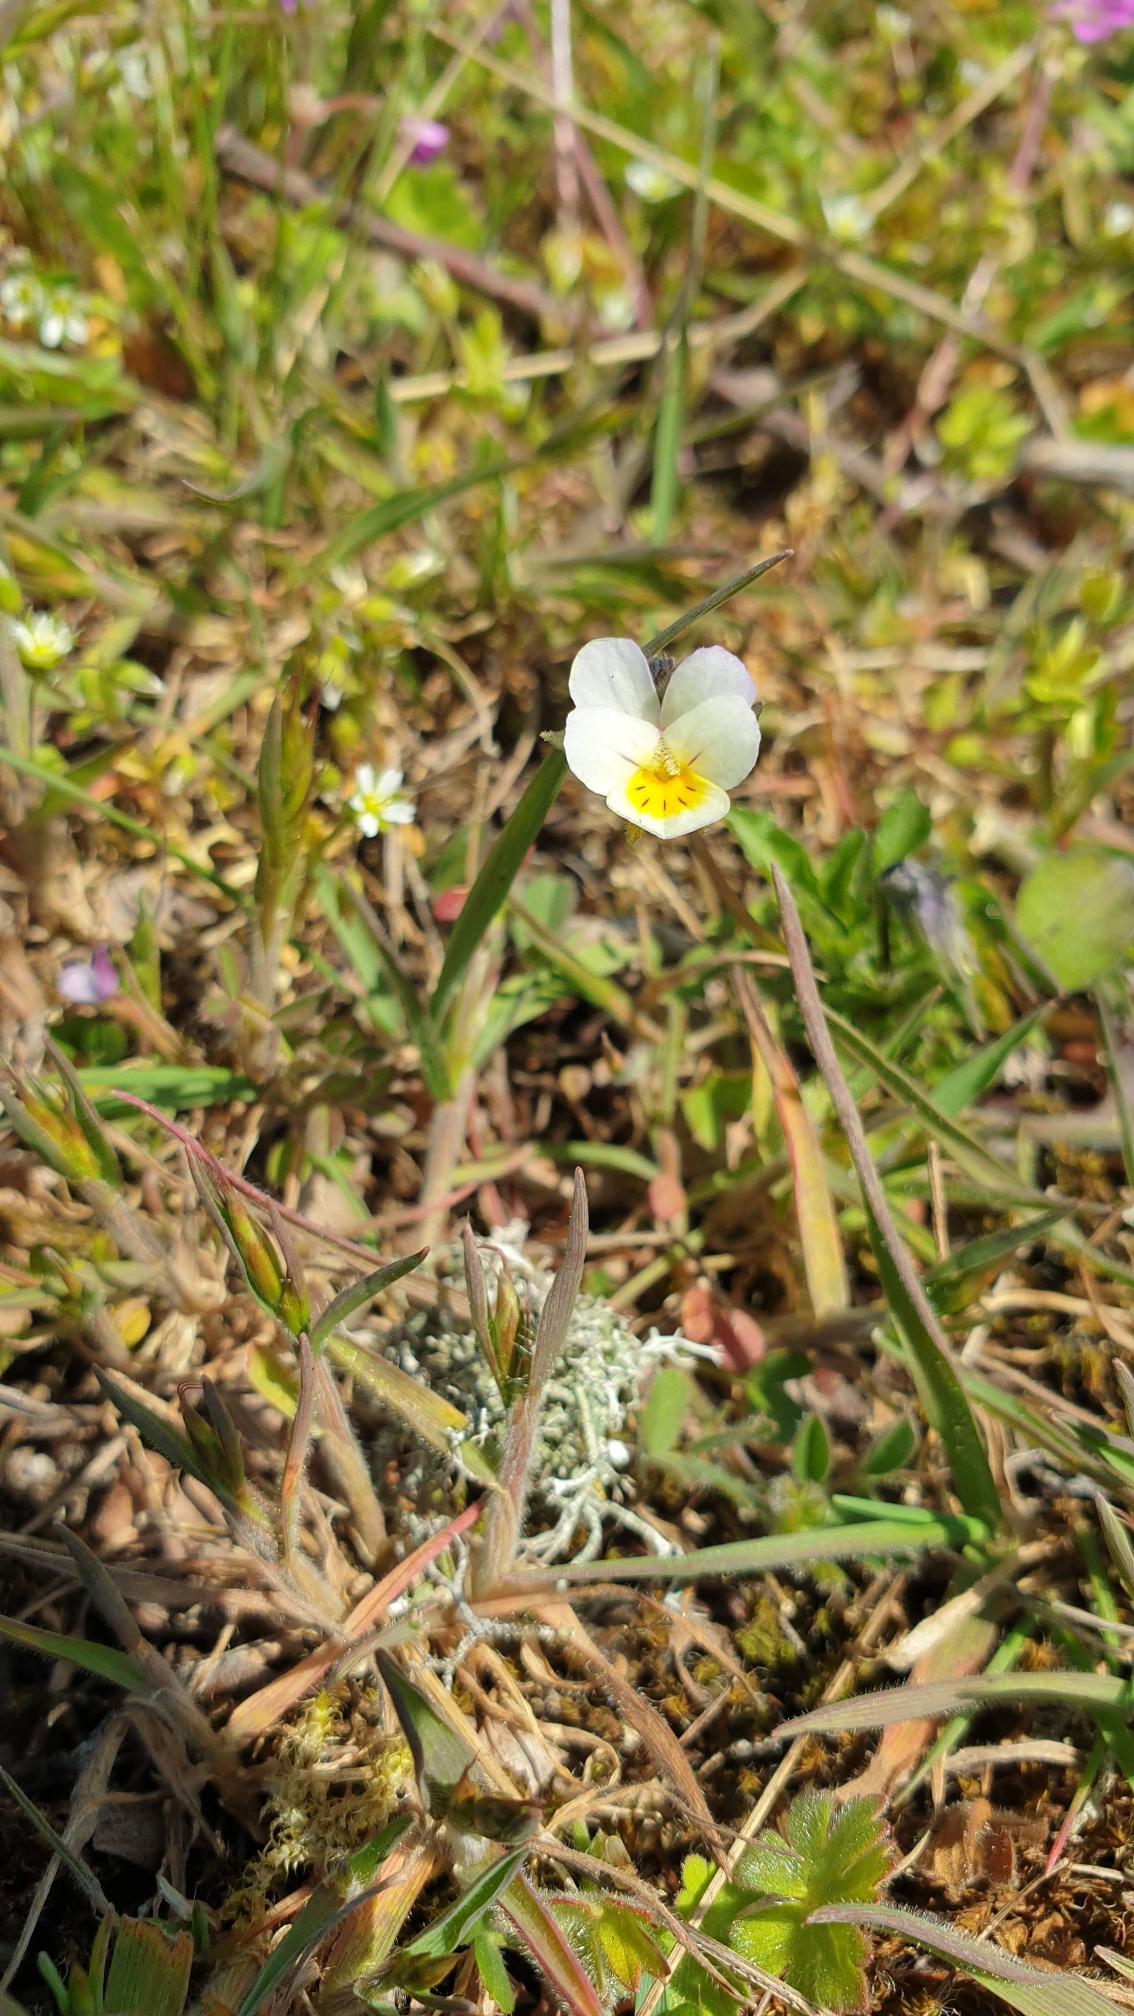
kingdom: Plantae
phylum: Tracheophyta
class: Magnoliopsida
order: Malpighiales
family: Violaceae
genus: Viola
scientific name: Viola arvensis
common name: Ager-stedmoderblomst
